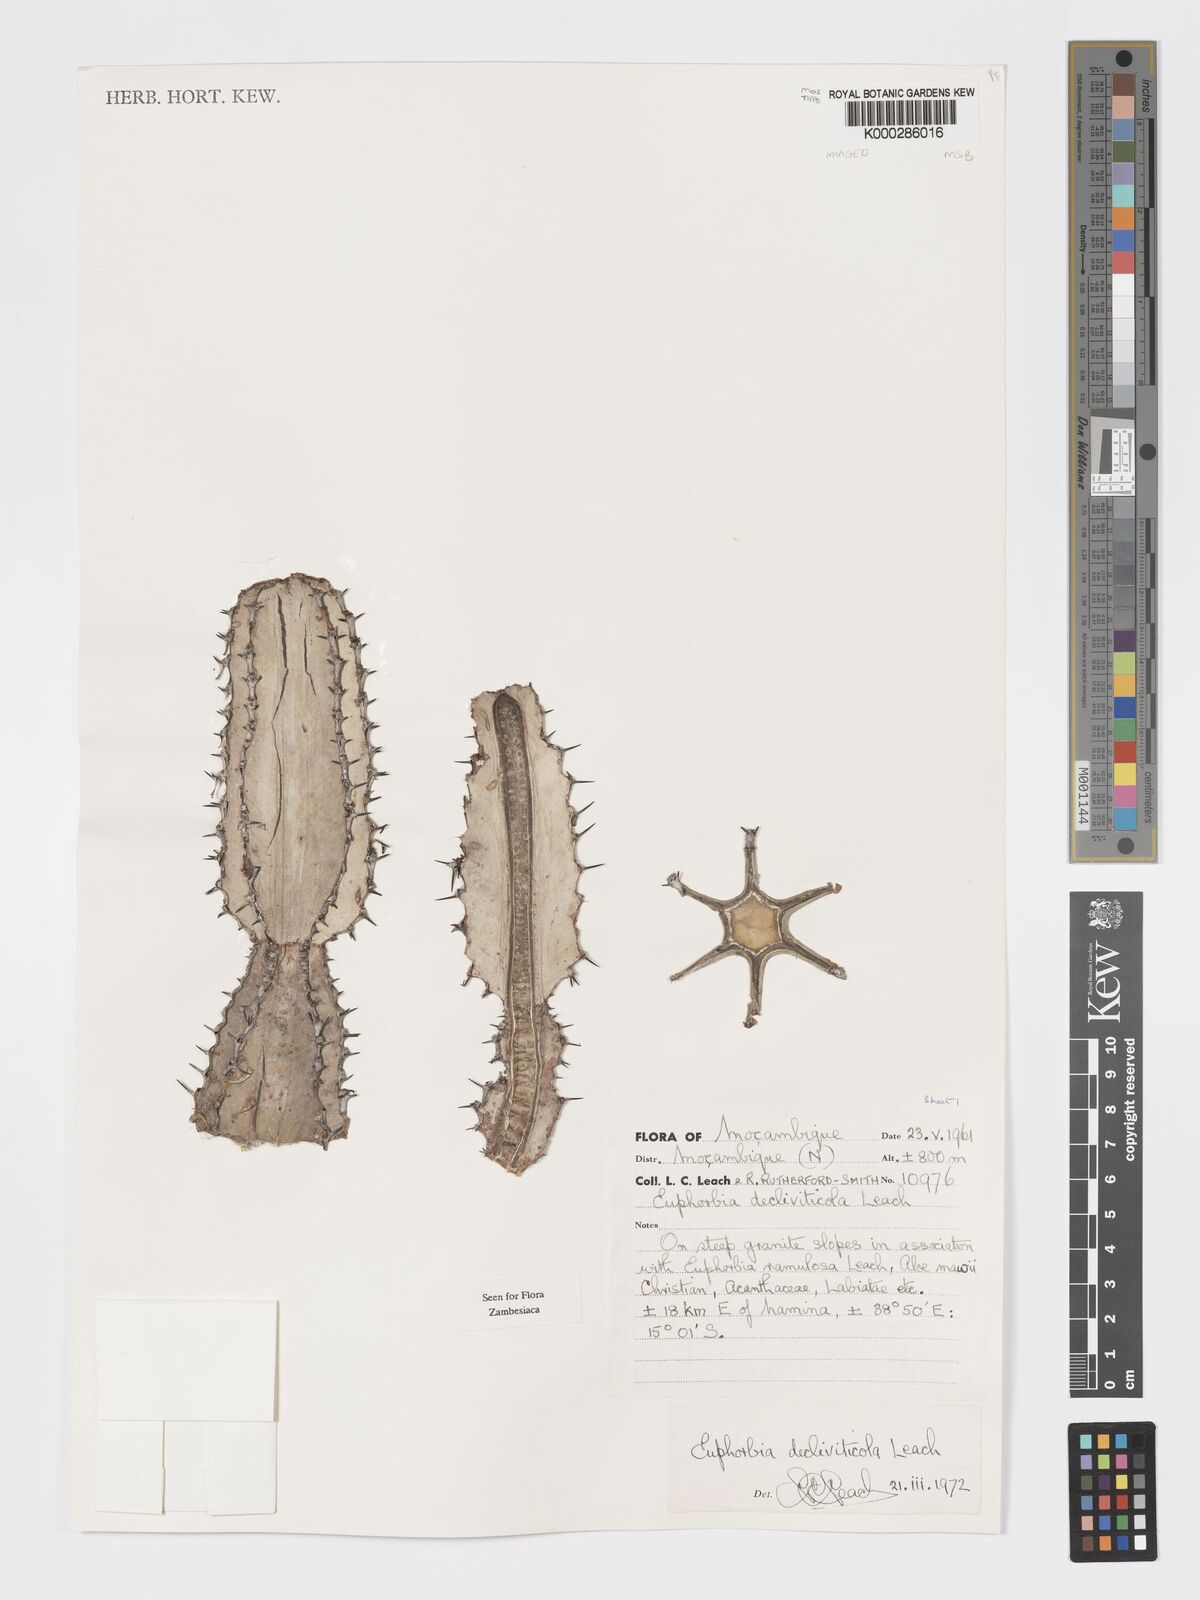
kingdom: Plantae
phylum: Tracheophyta
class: Magnoliopsida
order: Malpighiales
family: Euphorbiaceae
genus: Euphorbia
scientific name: Euphorbia decliviticola
